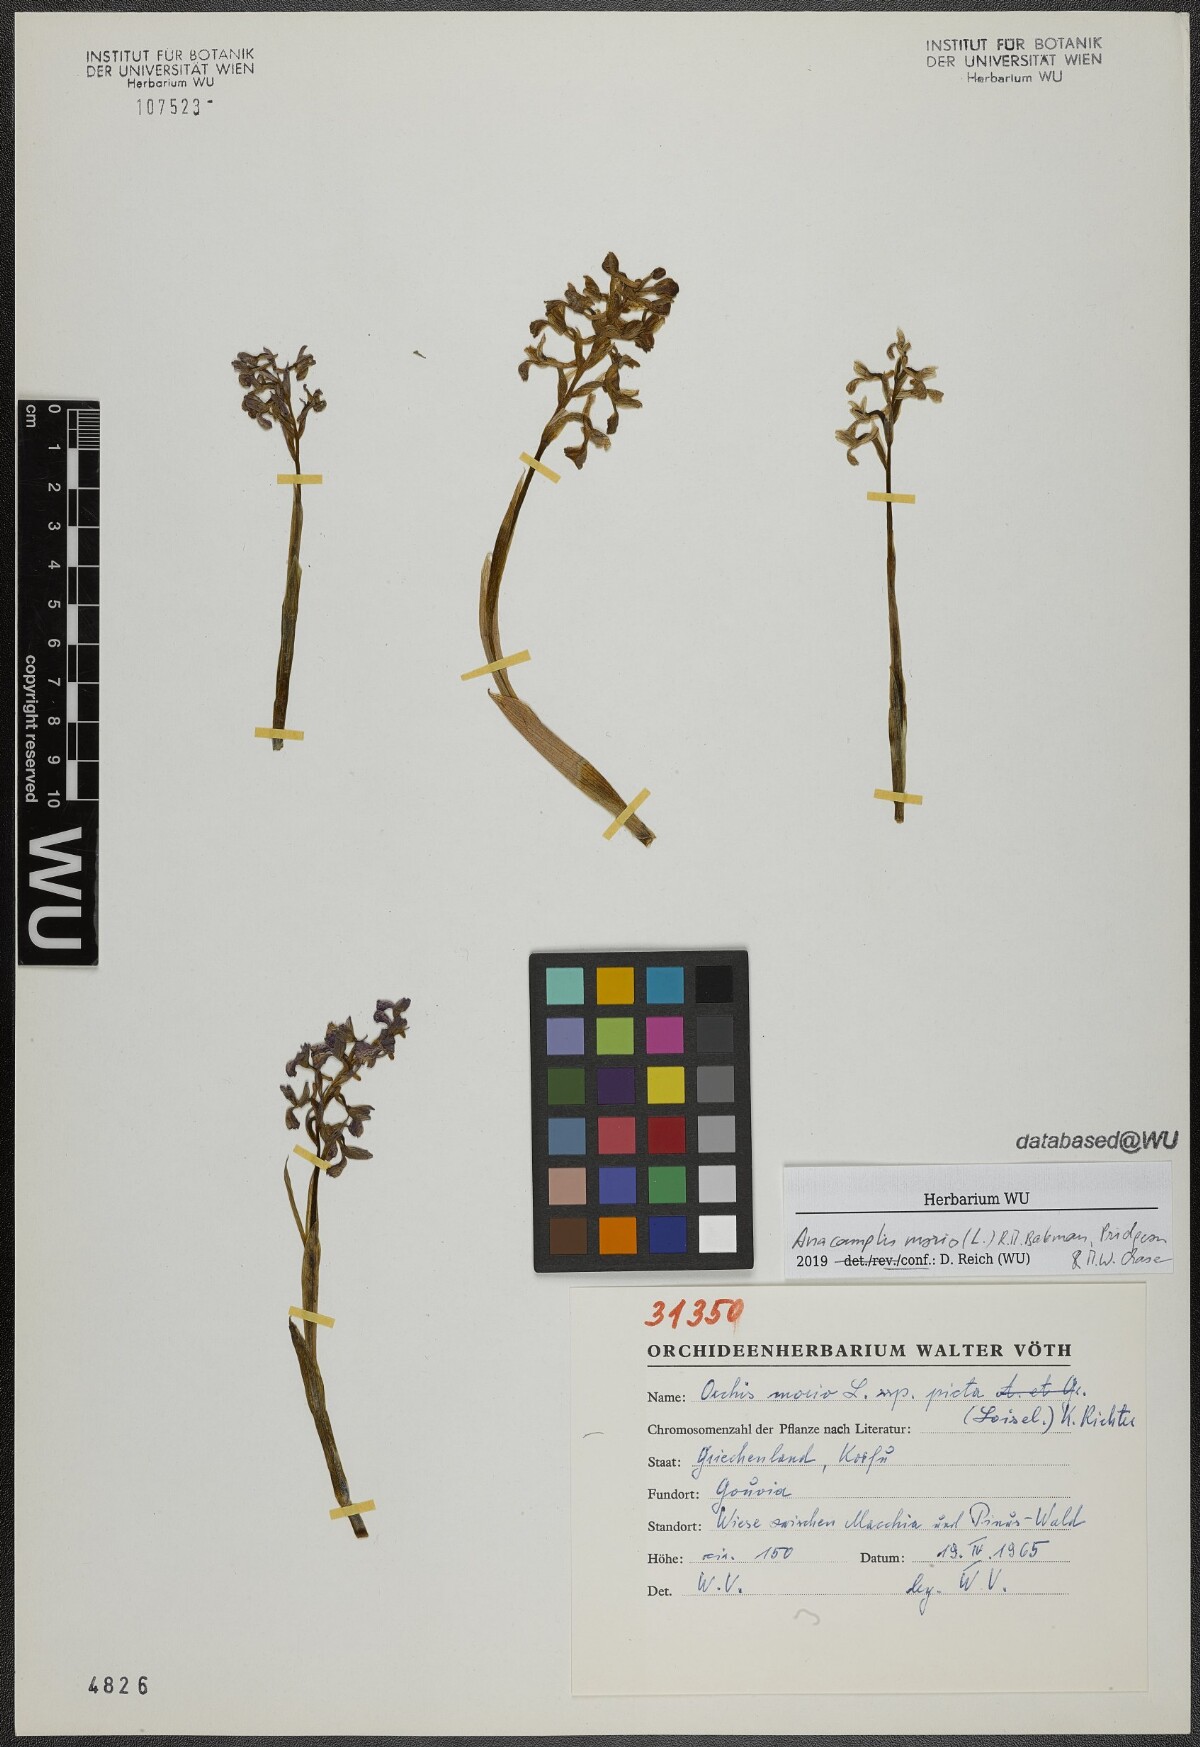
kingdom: Plantae
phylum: Tracheophyta
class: Liliopsida
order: Asparagales
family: Orchidaceae
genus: Anacamptis
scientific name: Anacamptis morio
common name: Green-winged orchid
